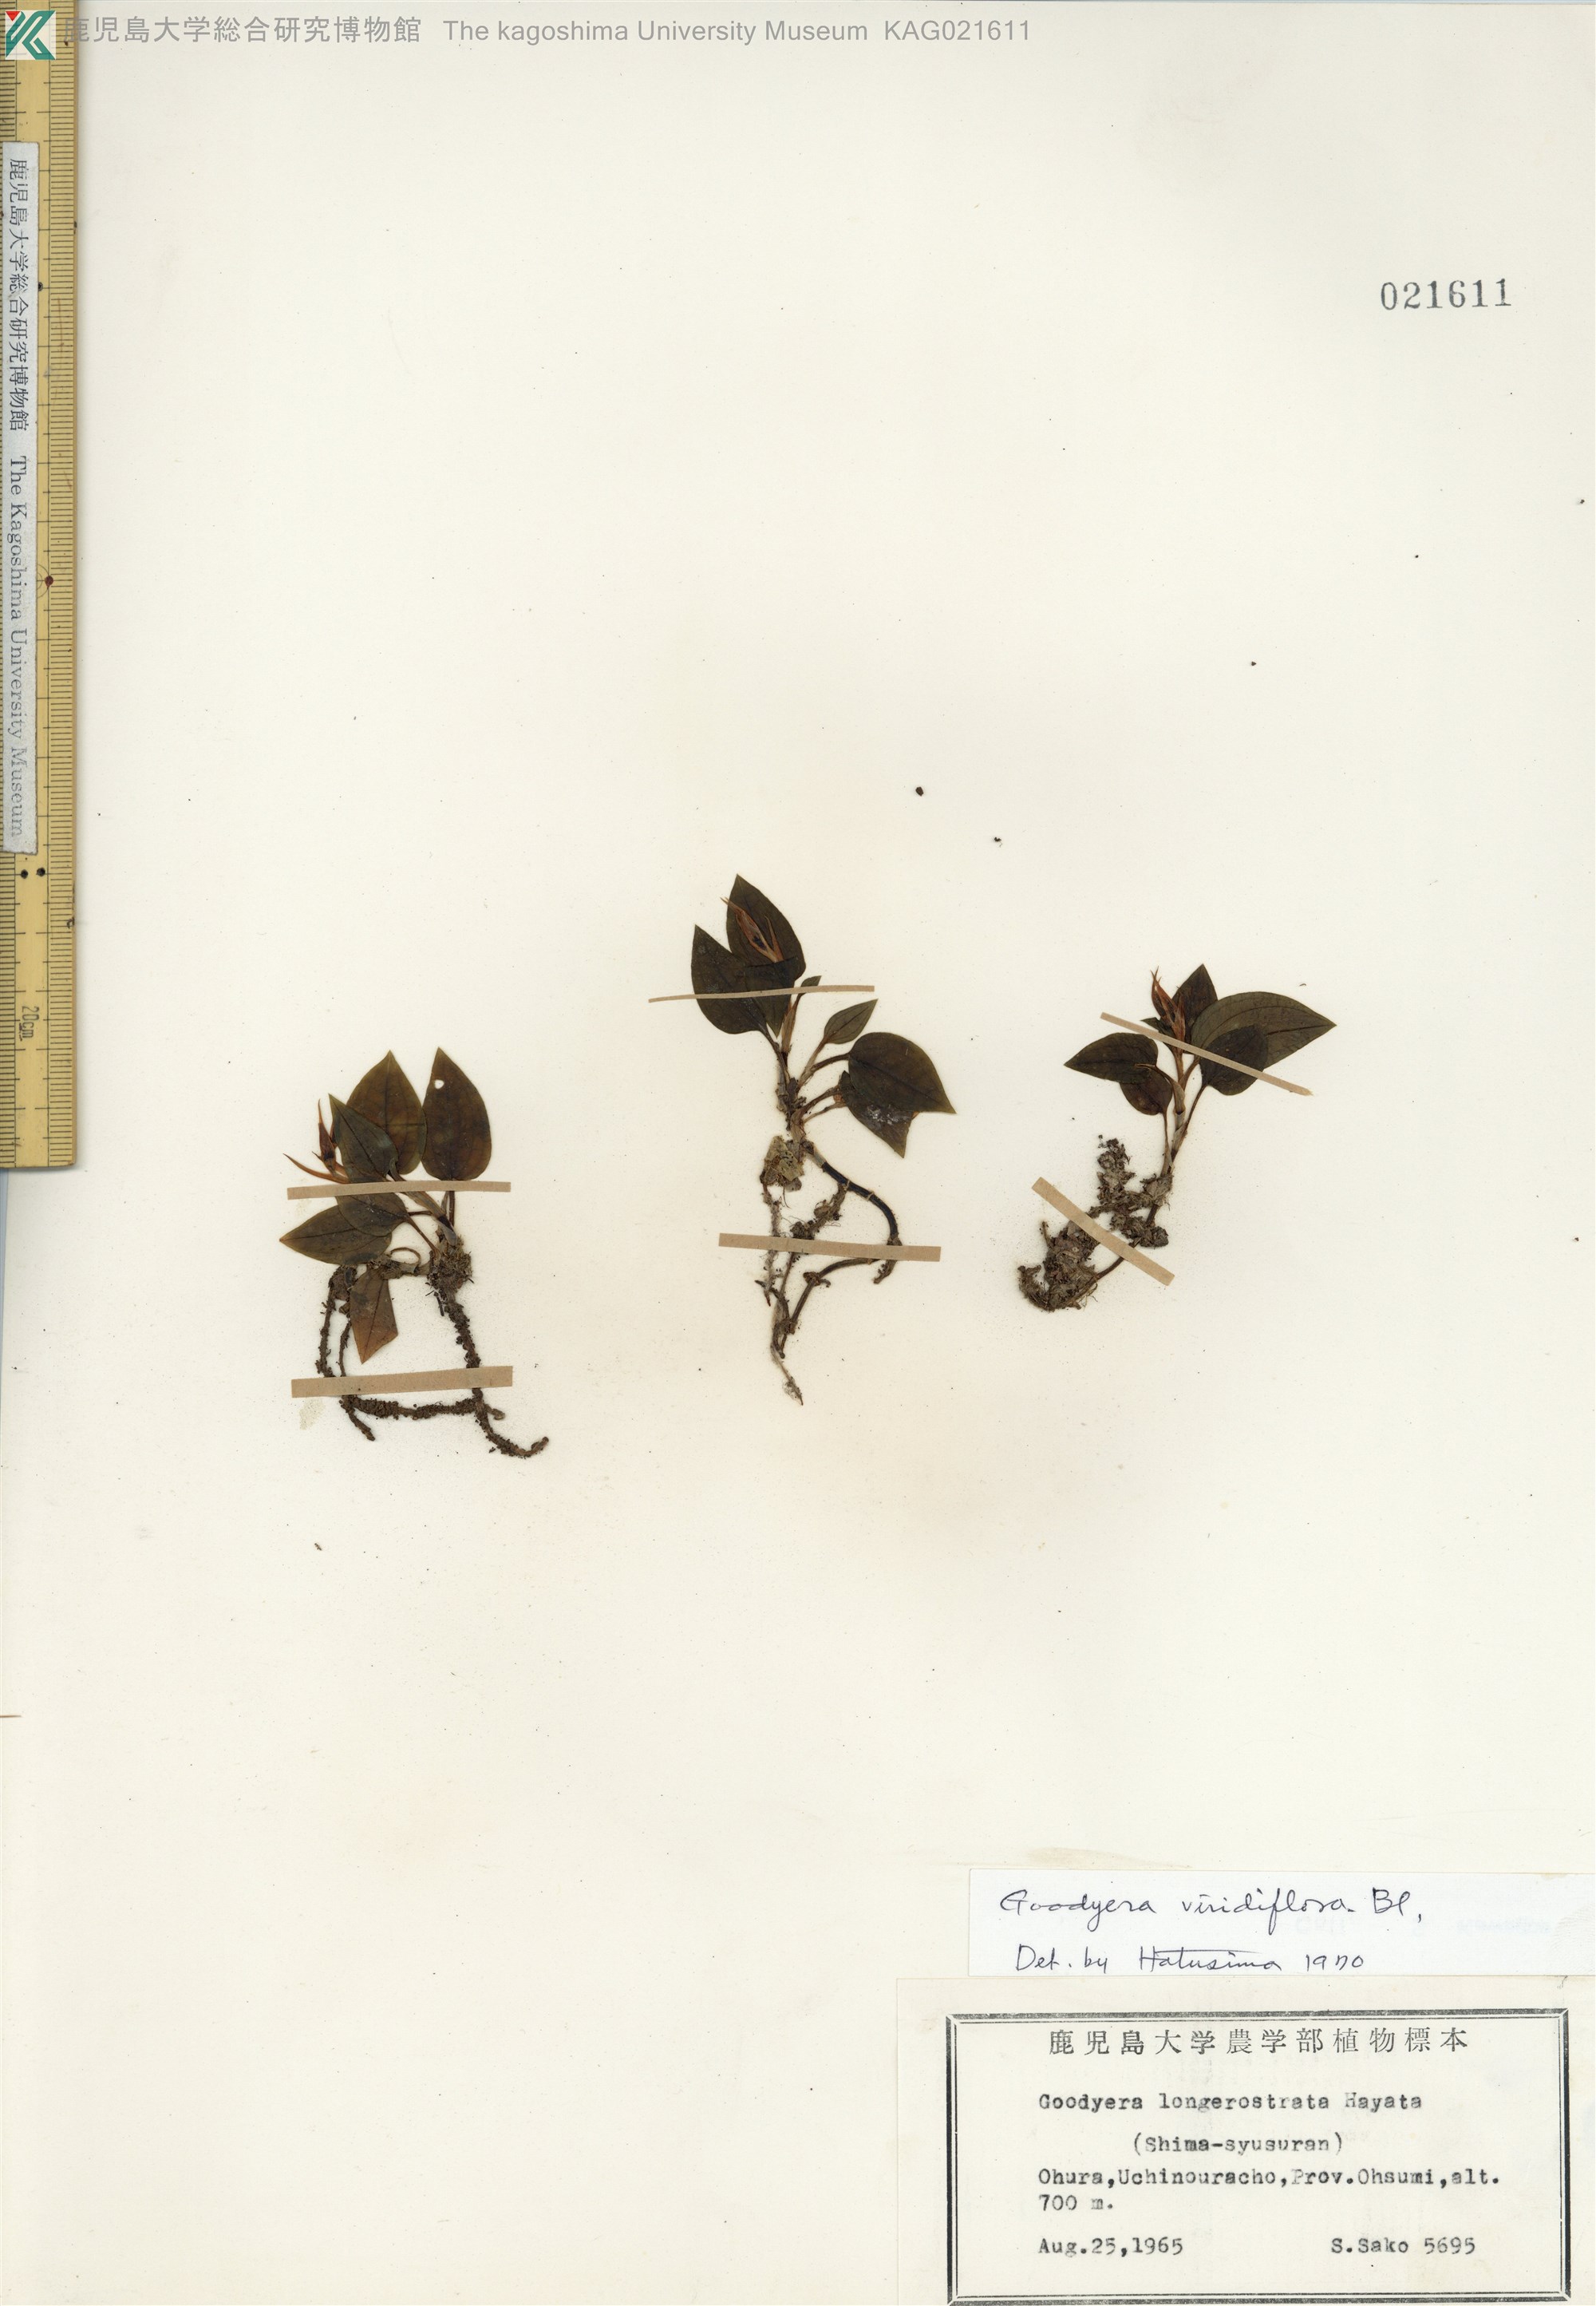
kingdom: Plantae
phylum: Tracheophyta
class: Liliopsida
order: Asparagales
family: Orchidaceae
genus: Goodyera
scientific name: Goodyera viridiflora
